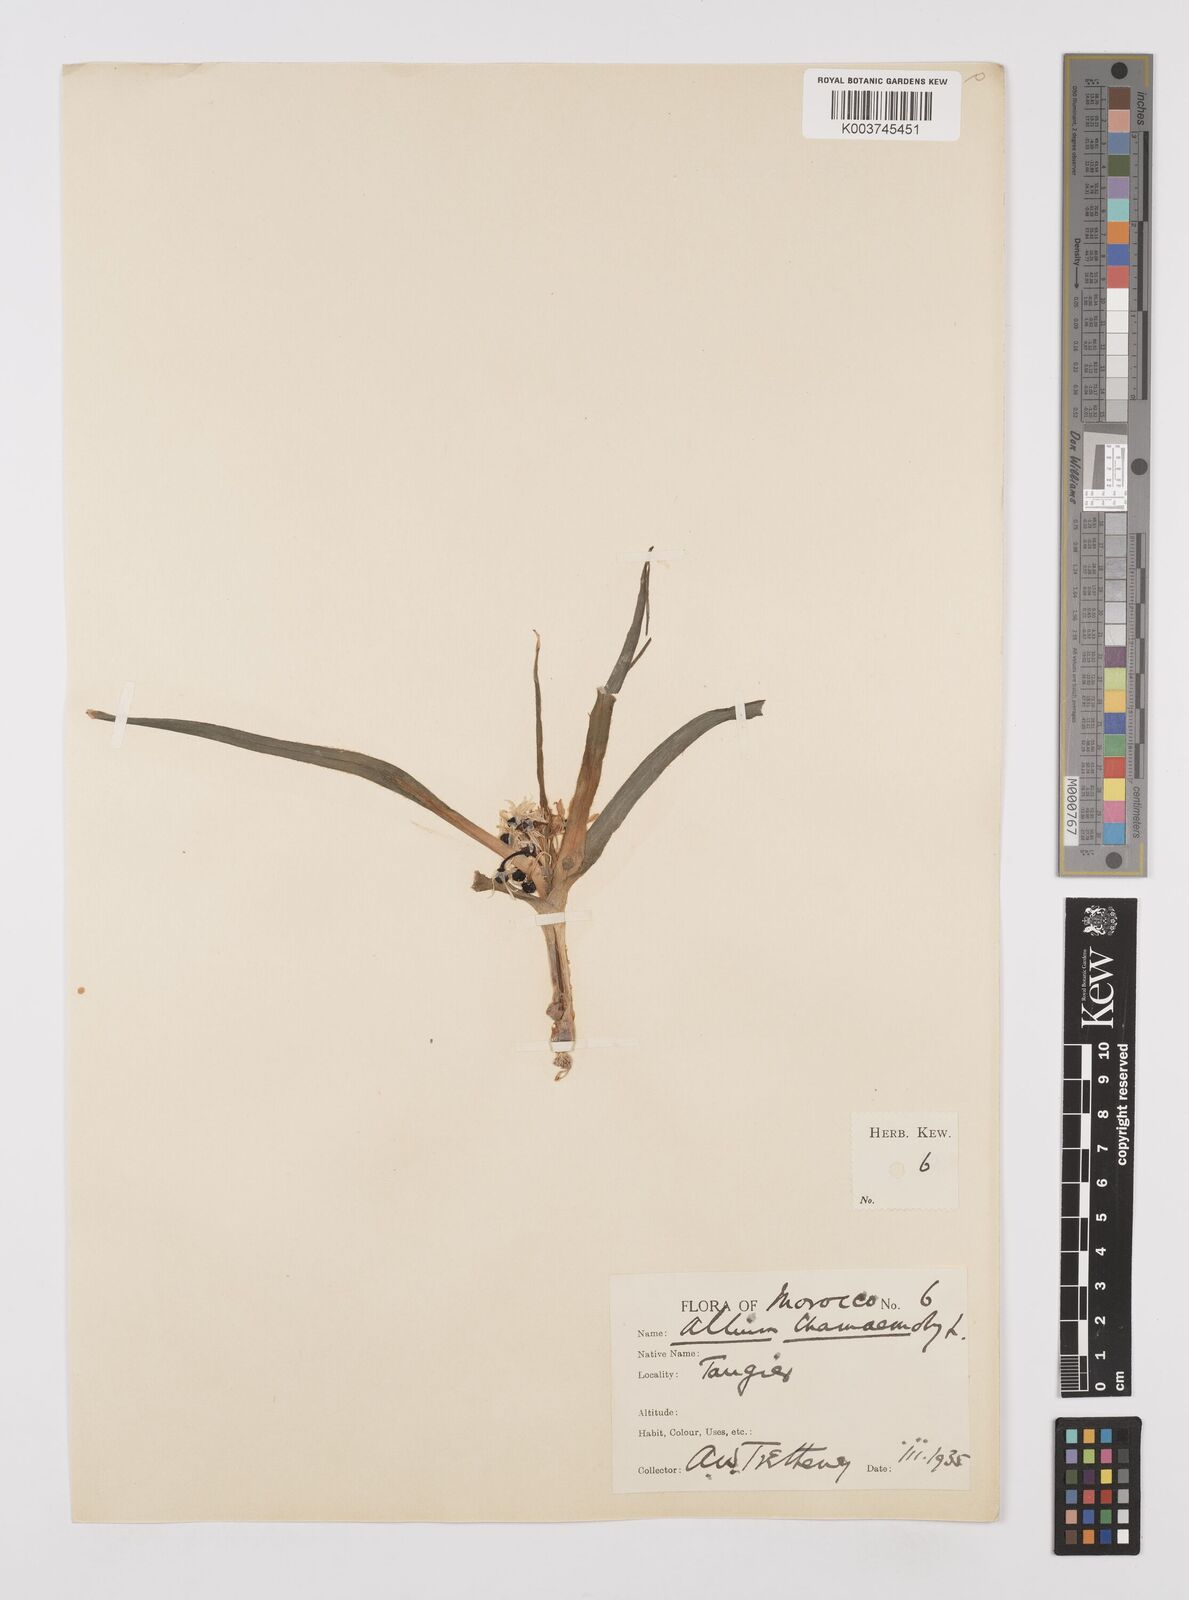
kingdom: Plantae
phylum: Tracheophyta
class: Liliopsida
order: Asparagales
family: Amaryllidaceae
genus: Allium
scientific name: Allium chamaemoly
